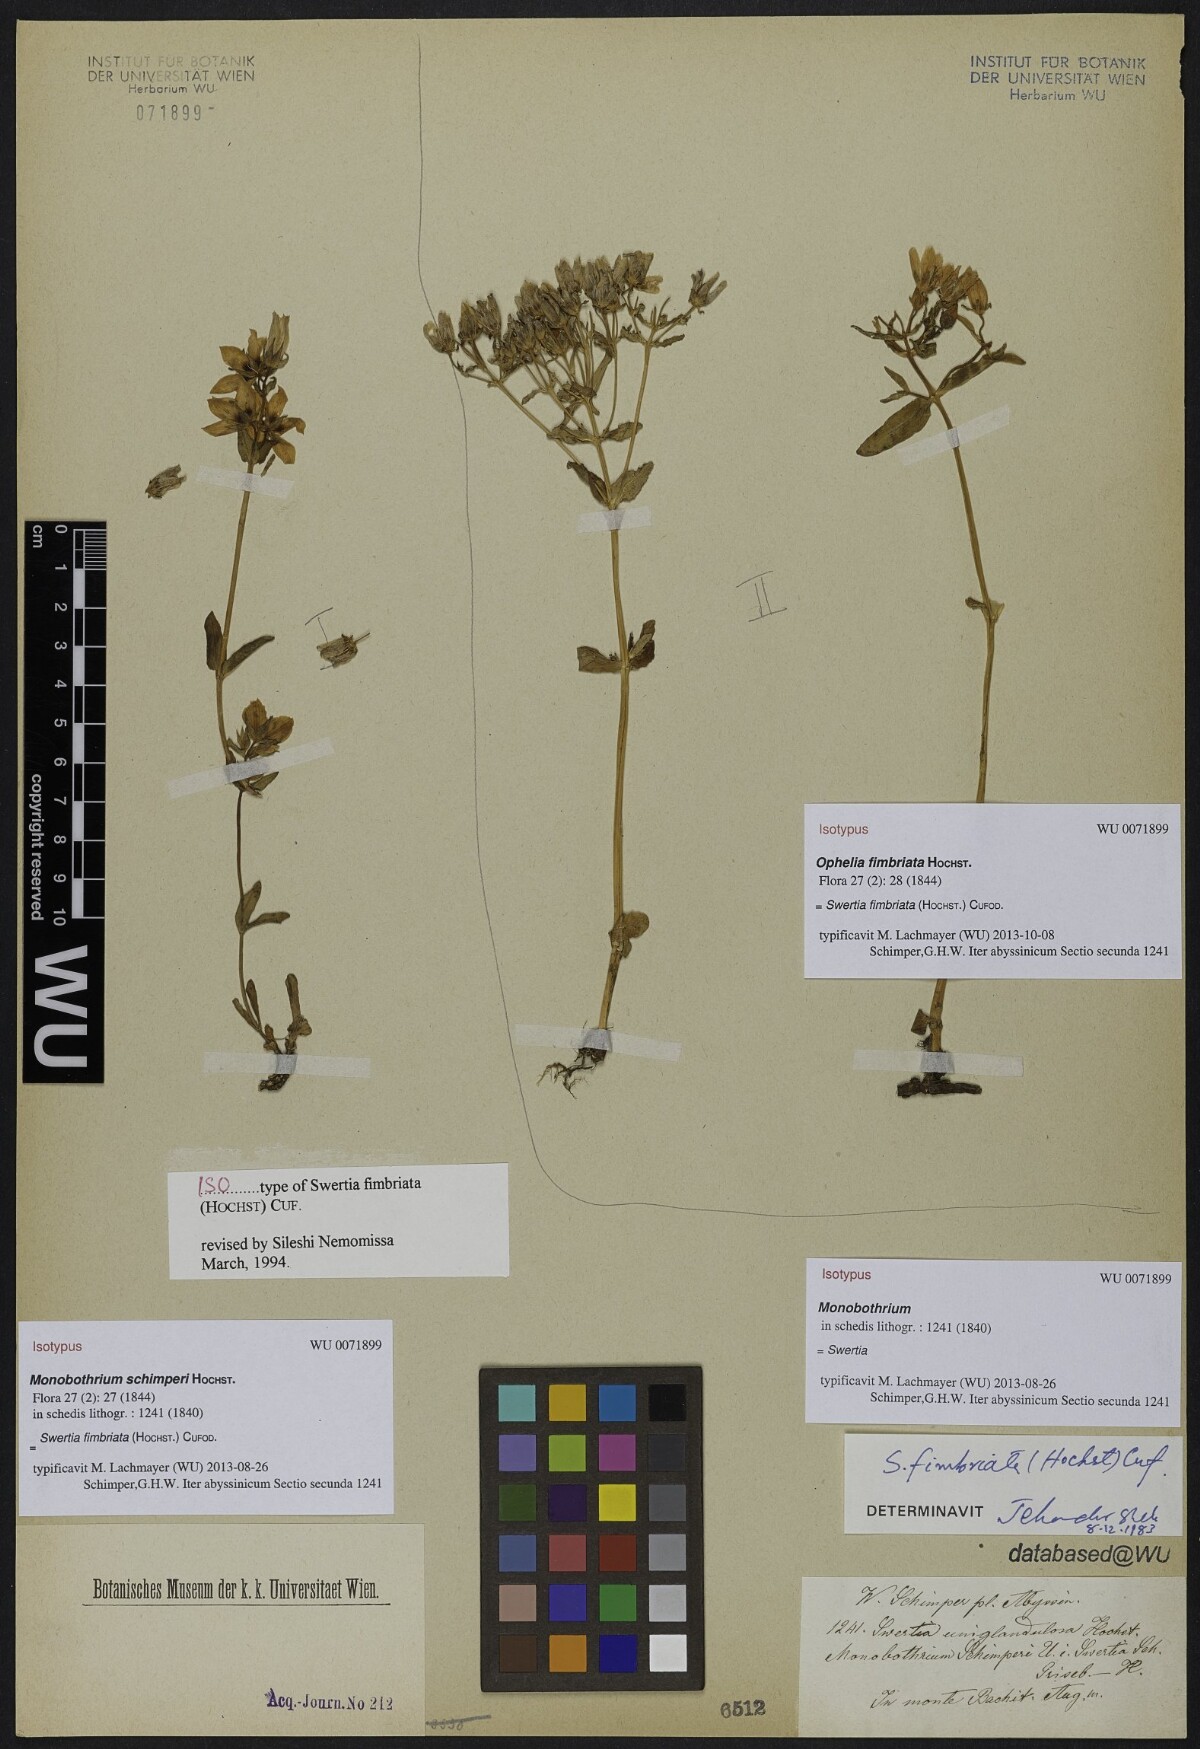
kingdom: Plantae
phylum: Tracheophyta
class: Magnoliopsida
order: Gentianales
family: Gentianaceae
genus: Swertia
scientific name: Swertia schimperi
